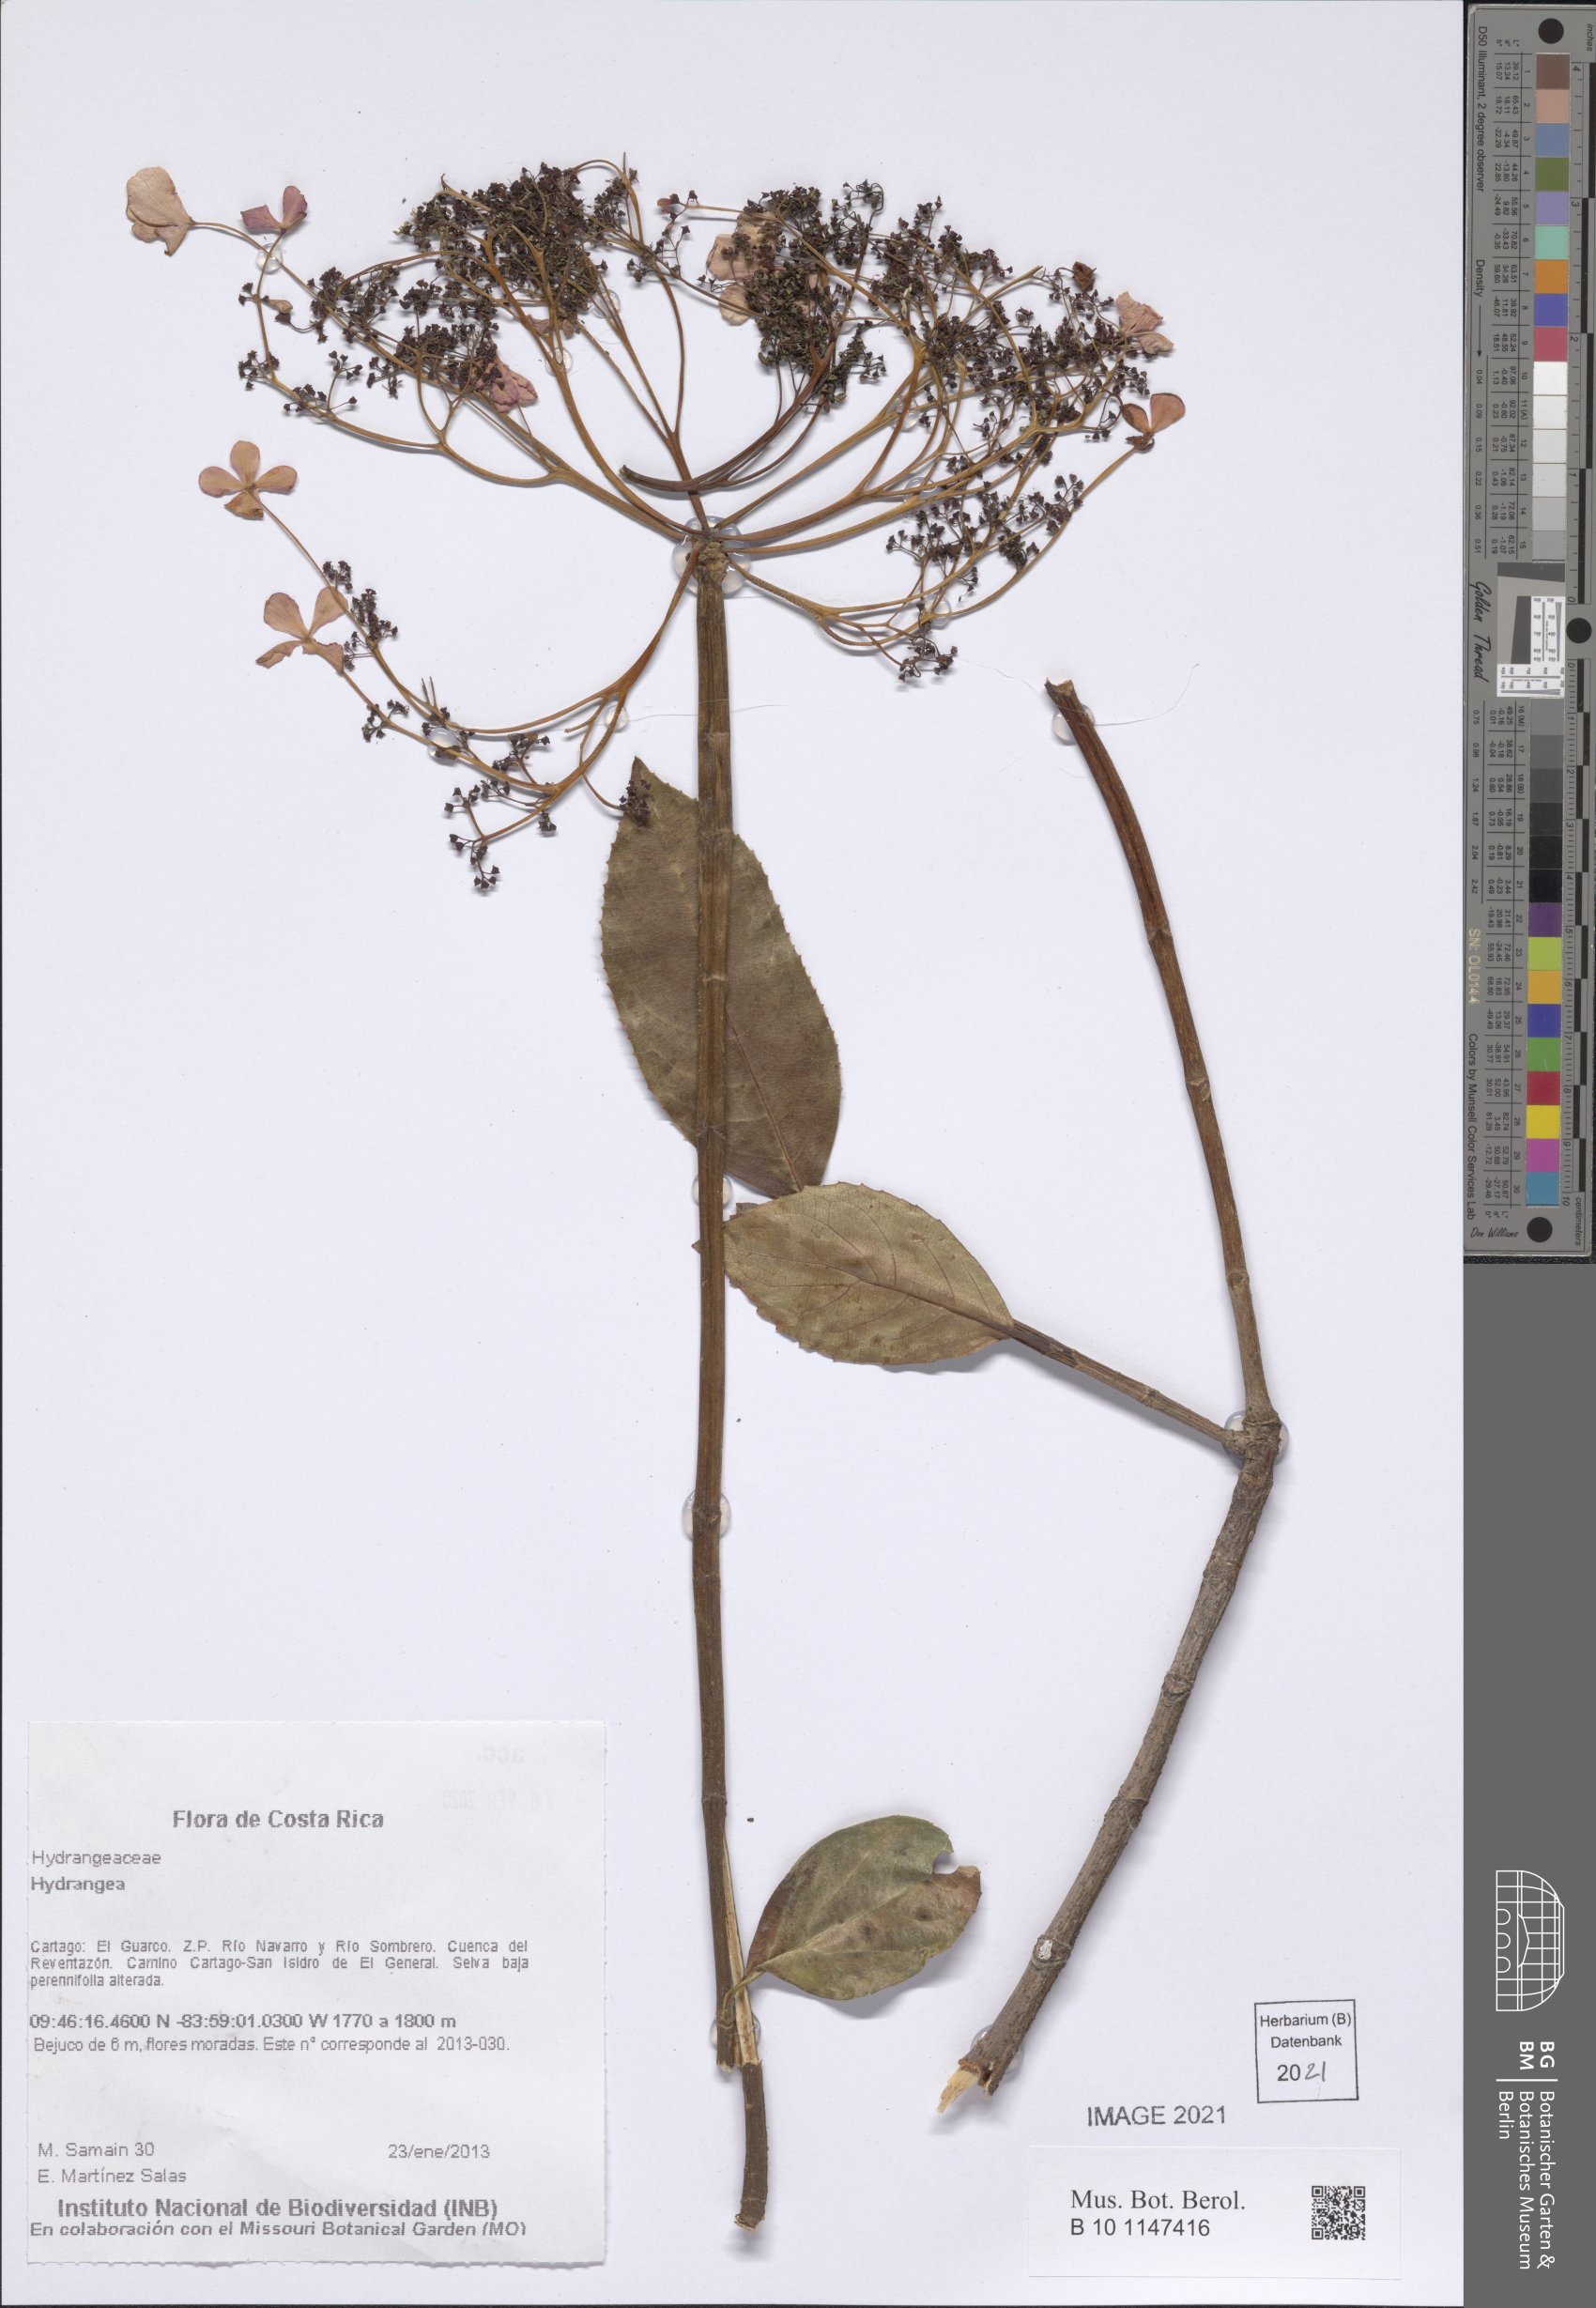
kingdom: Plantae
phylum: Tracheophyta
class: Magnoliopsida
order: Cornales
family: Hydrangeaceae
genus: Hydrangea
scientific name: Hydrangea
